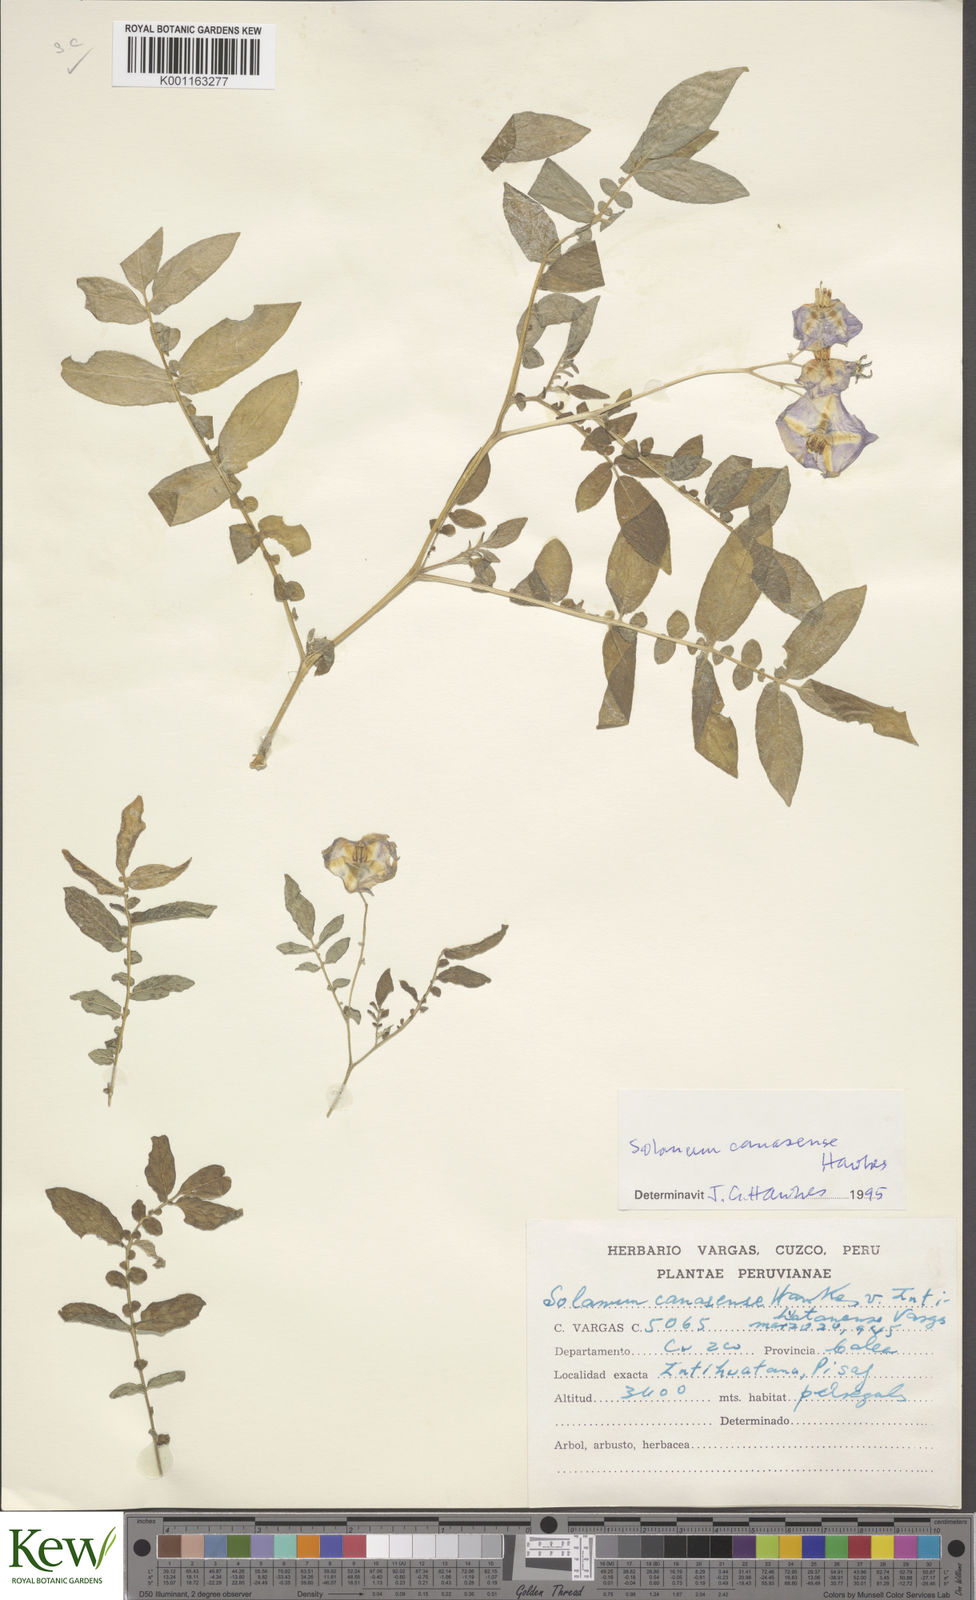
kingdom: Plantae
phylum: Tracheophyta
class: Magnoliopsida
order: Solanales
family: Solanaceae
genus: Solanum
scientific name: Solanum candolleanum
